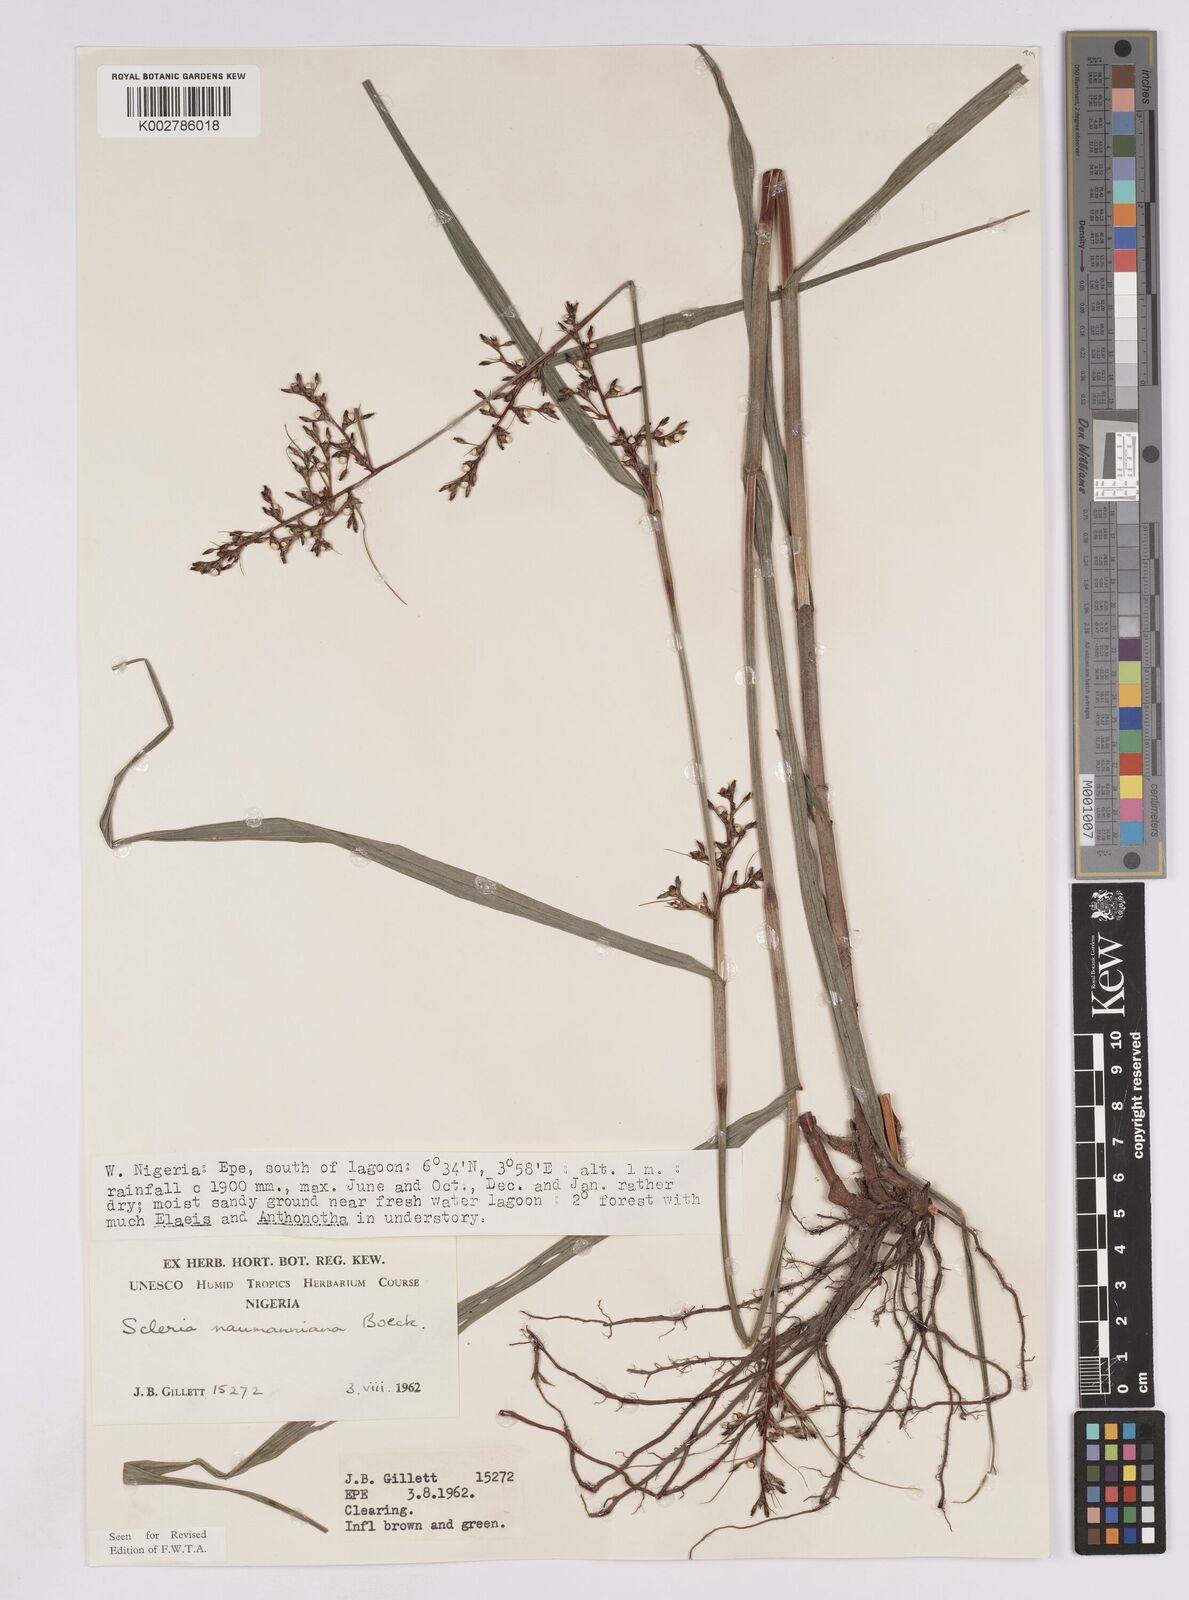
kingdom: Plantae
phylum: Tracheophyta
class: Liliopsida
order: Poales
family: Cyperaceae
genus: Scleria
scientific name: Scleria naumanniana
